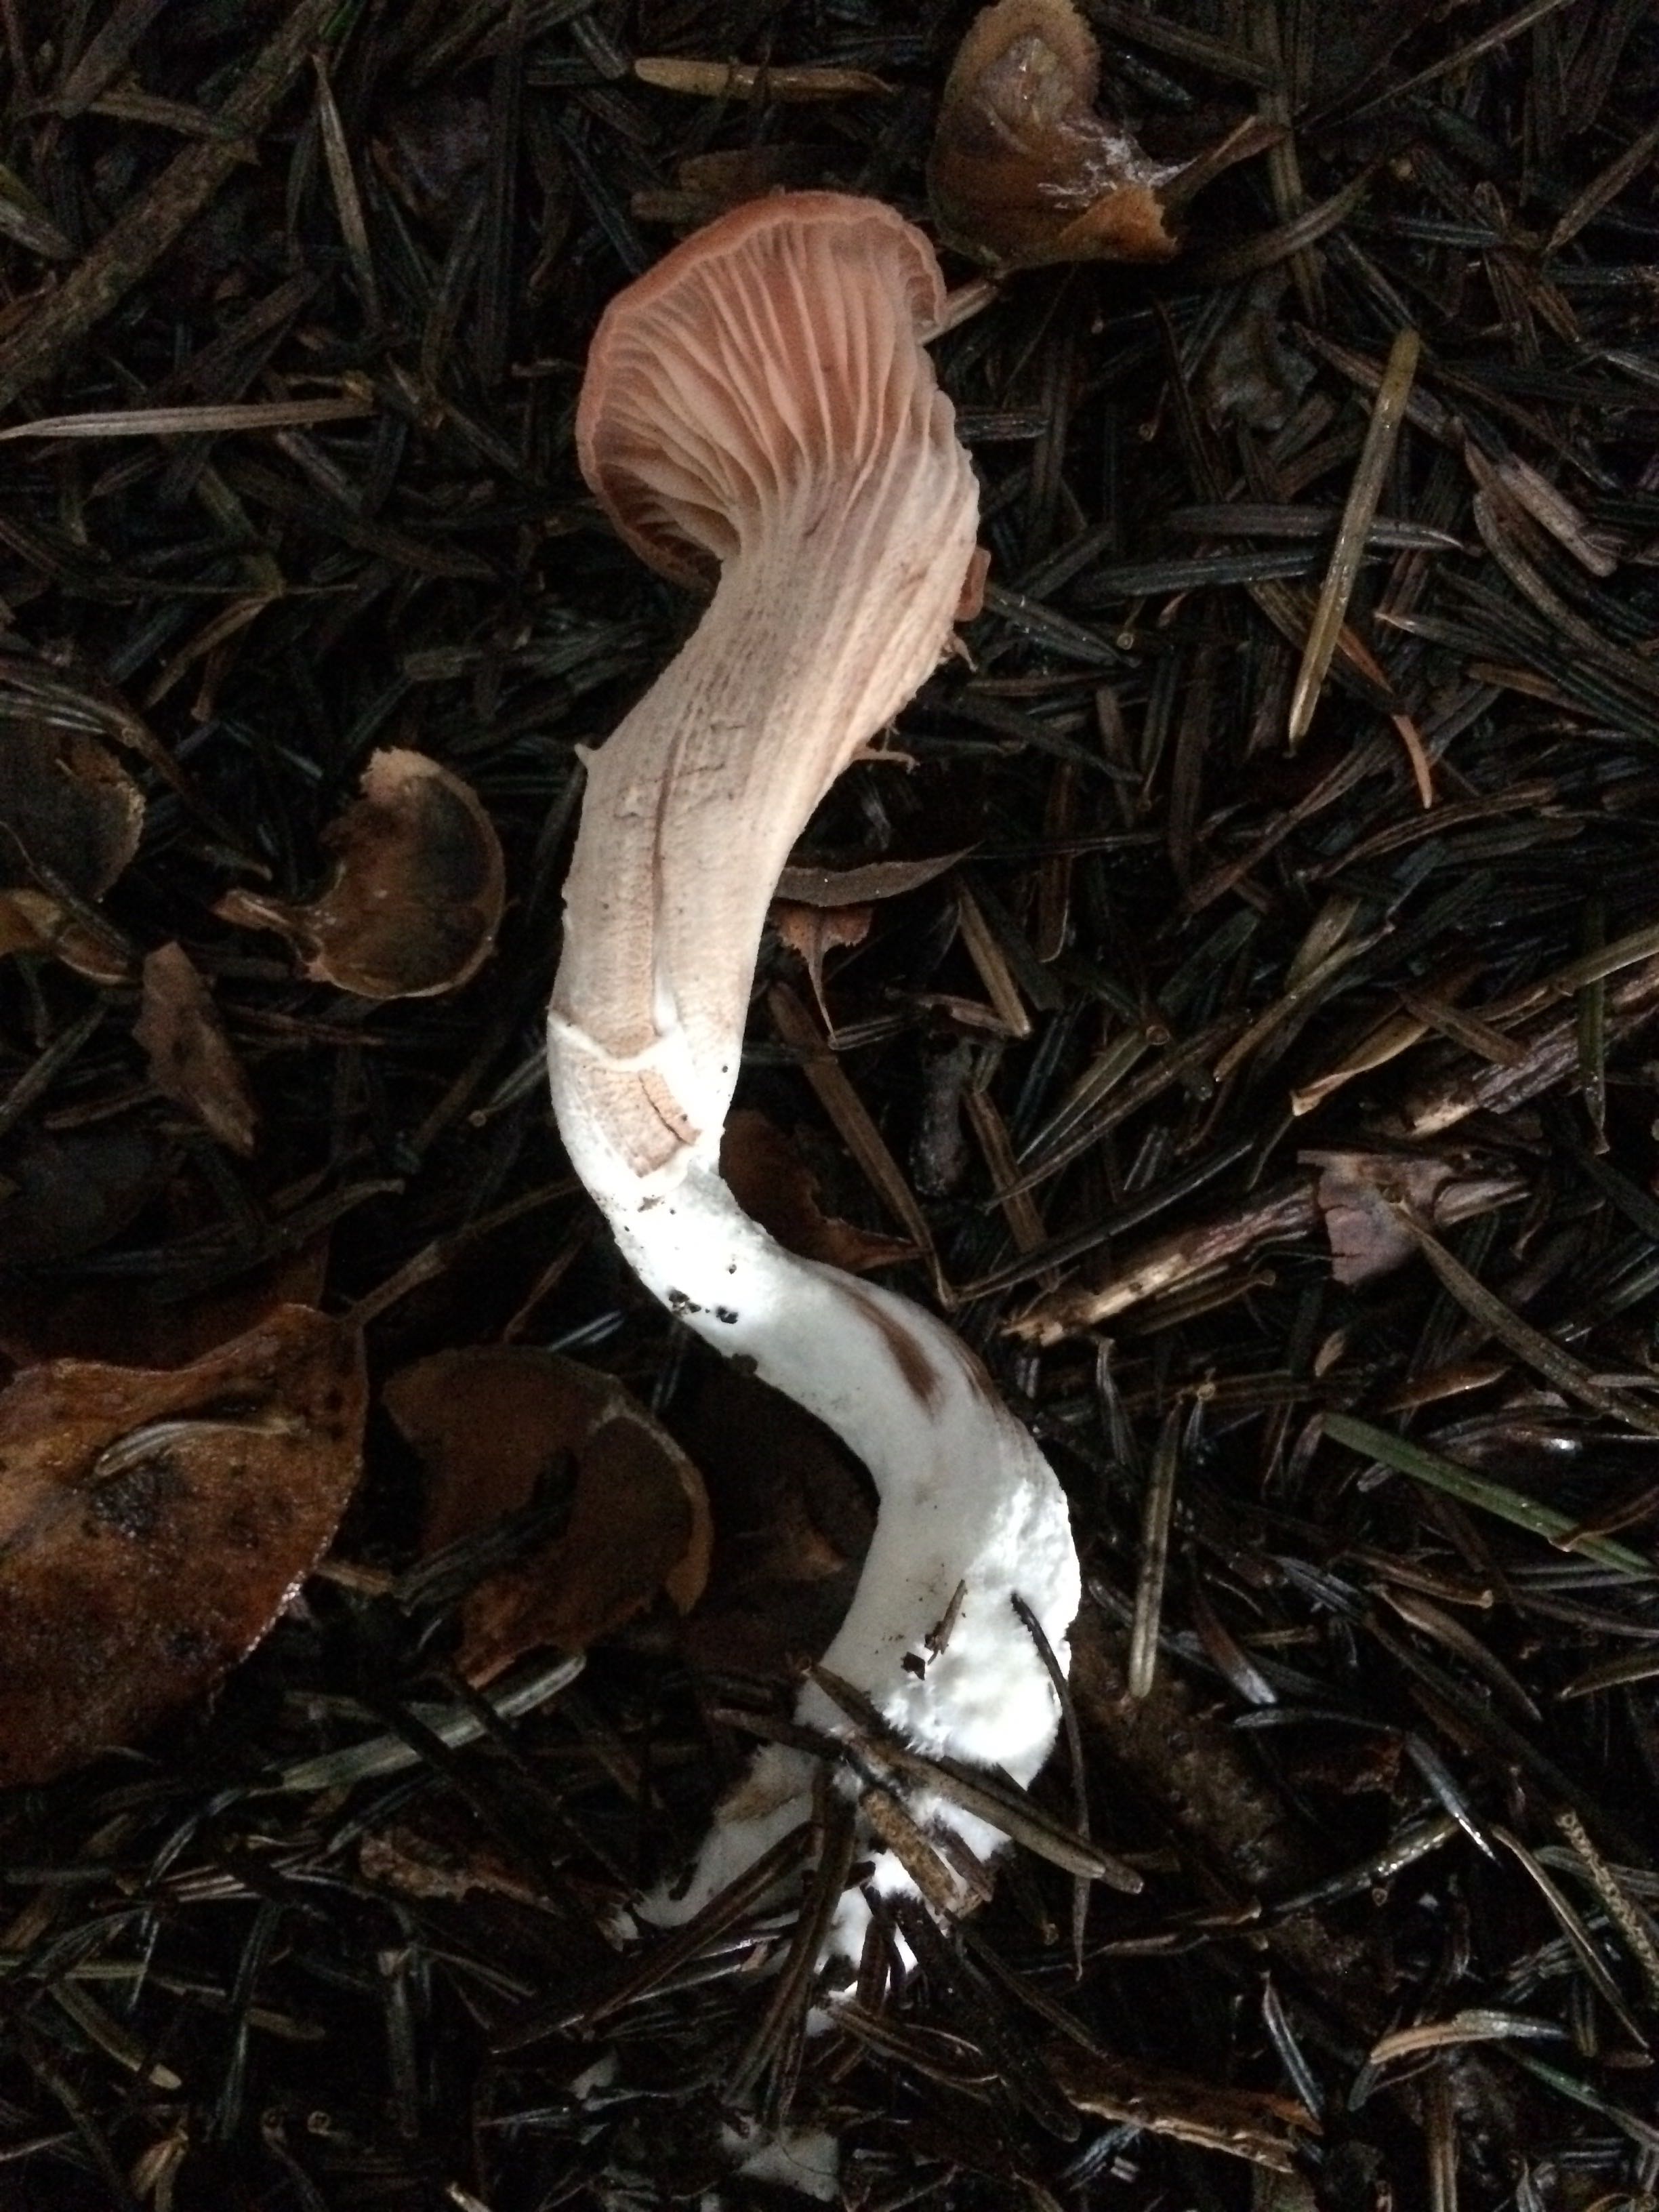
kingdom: Fungi
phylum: Basidiomycota
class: Agaricomycetes
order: Agaricales
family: Hydnangiaceae
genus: Laccaria
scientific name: Laccaria laccata
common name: rød ametysthat
